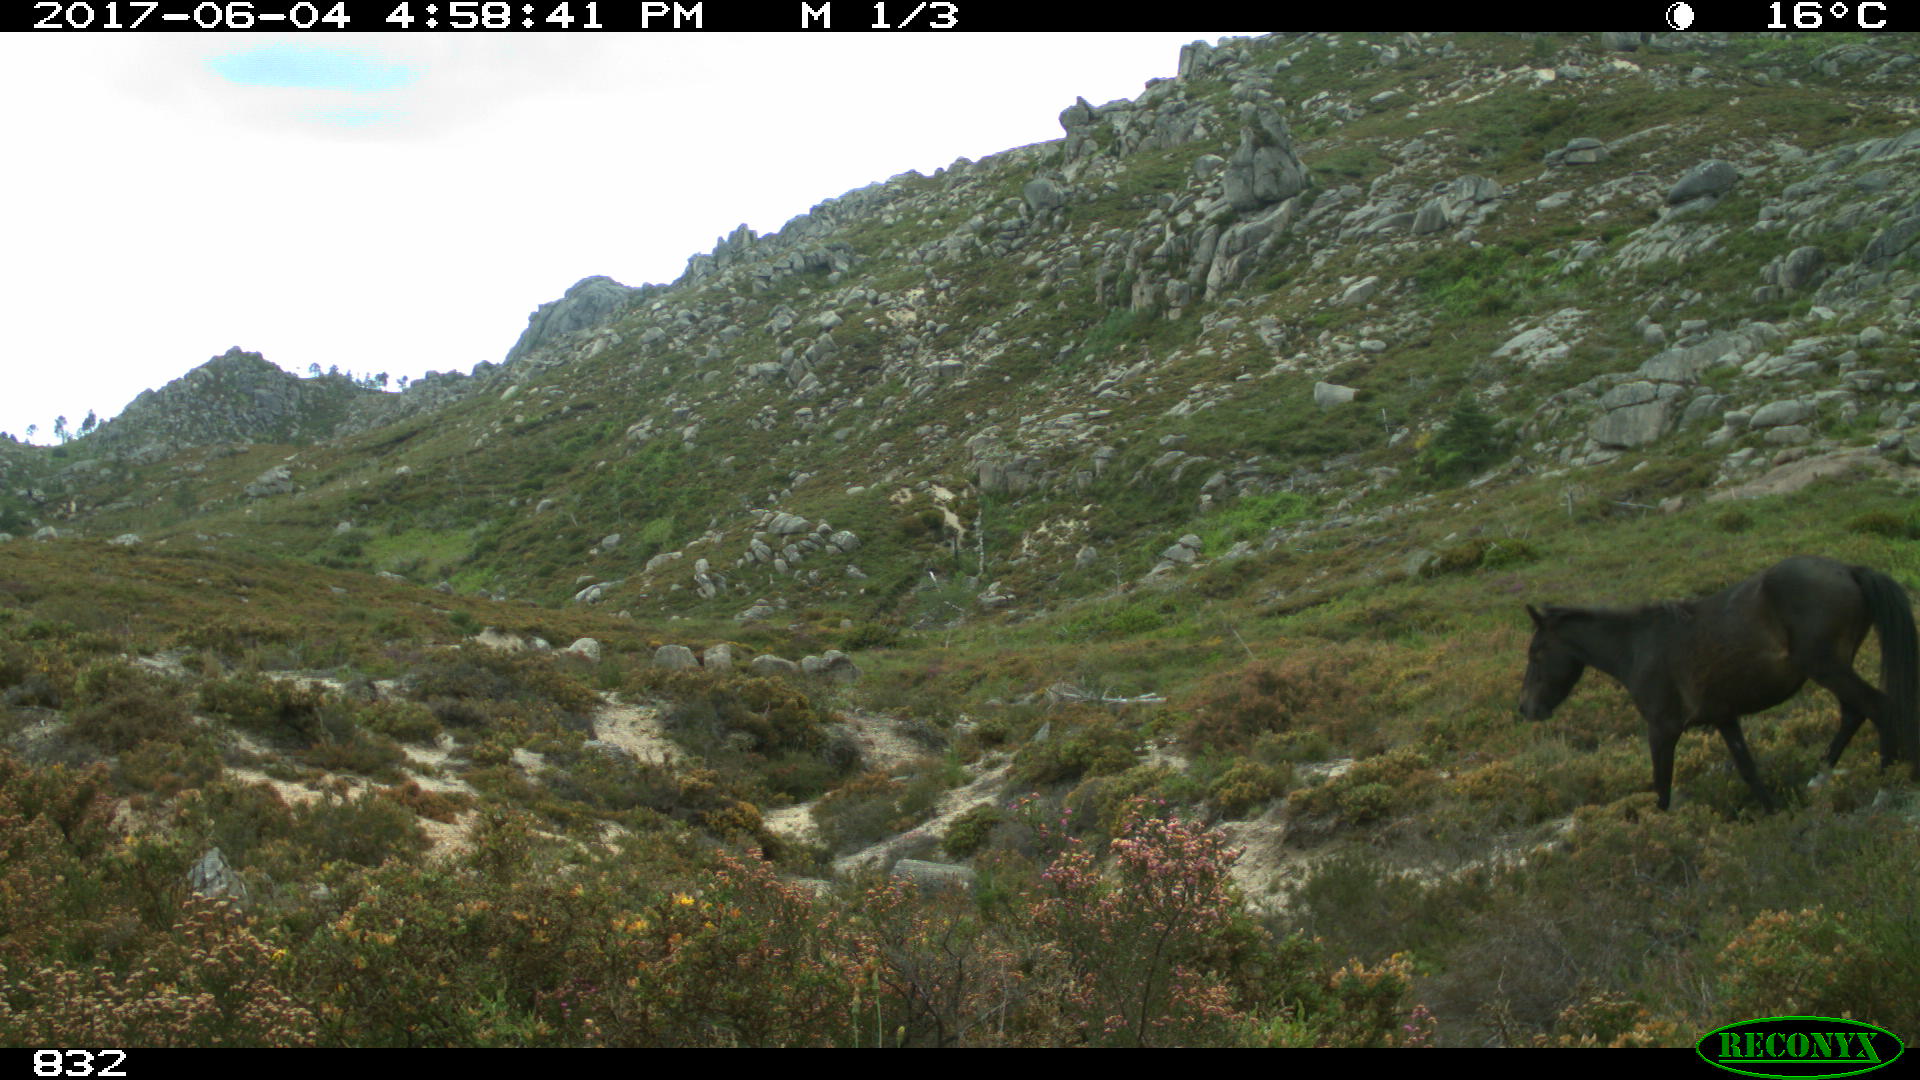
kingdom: Animalia
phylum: Chordata
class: Mammalia
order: Perissodactyla
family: Equidae
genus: Equus
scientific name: Equus caballus
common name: Horse
